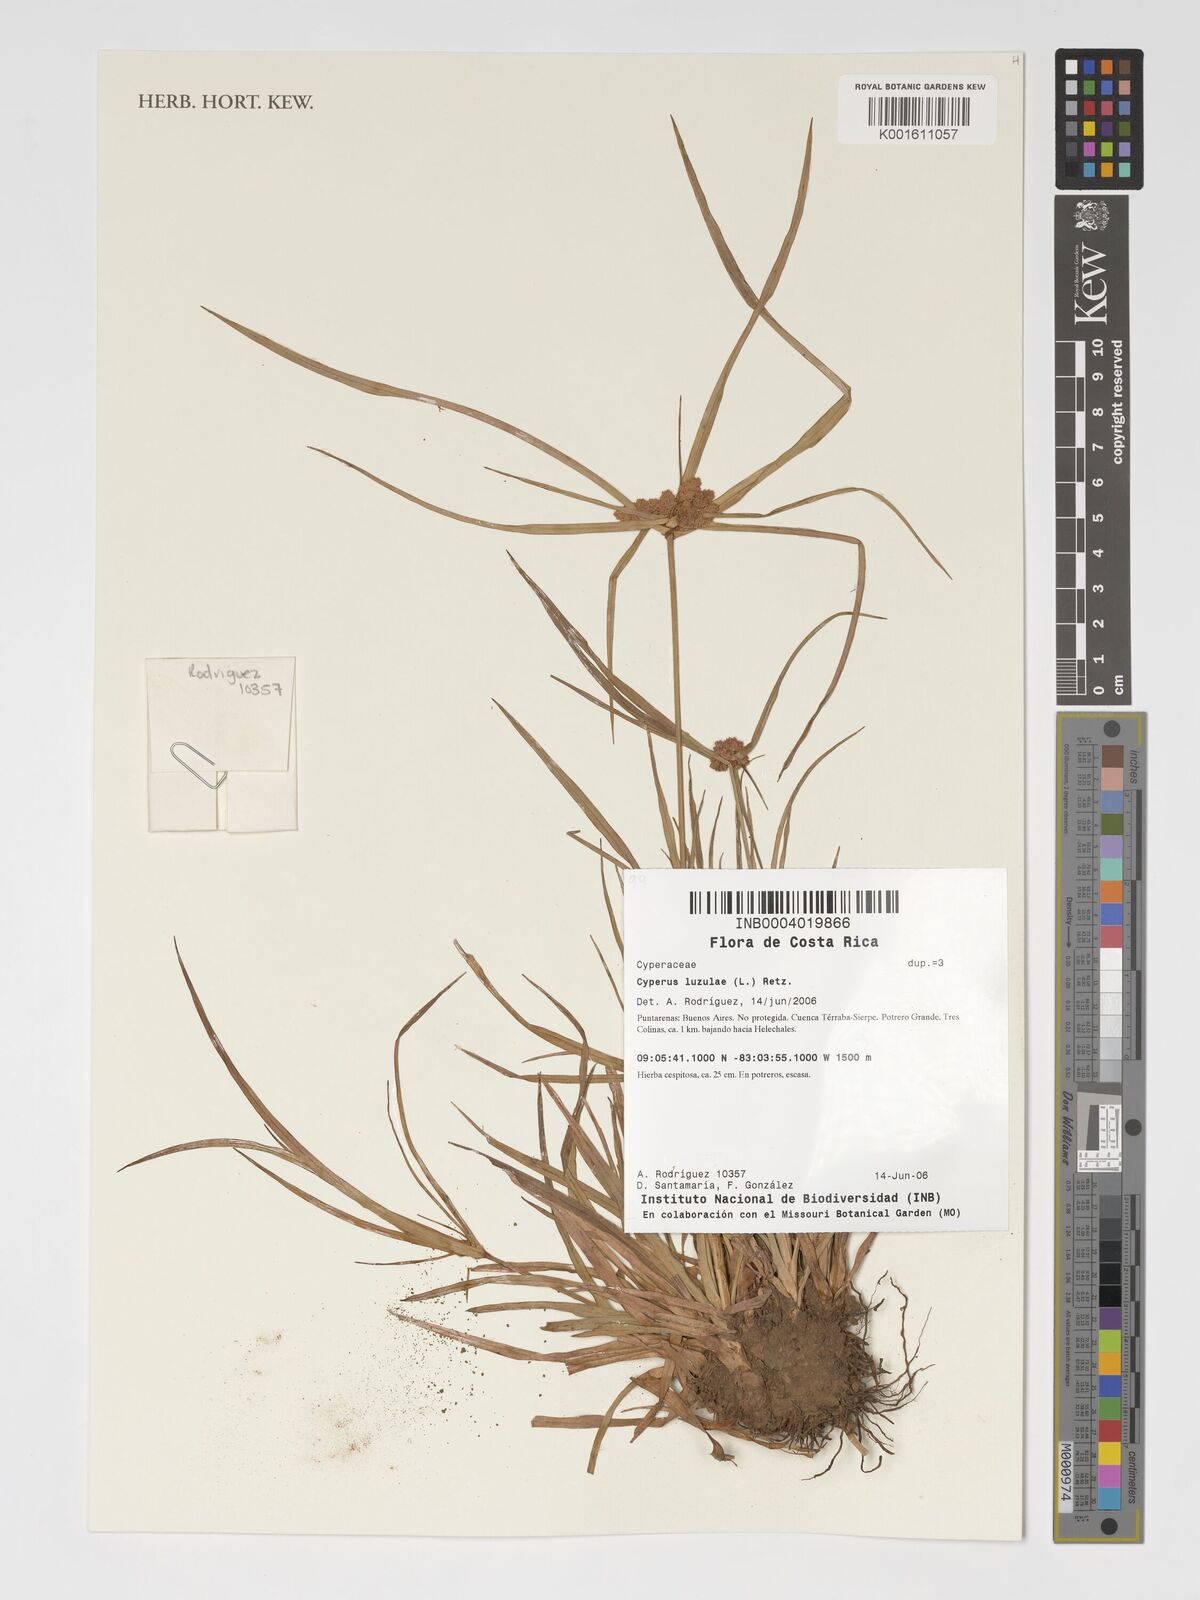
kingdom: Plantae
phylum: Tracheophyta
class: Liliopsida
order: Poales
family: Cyperaceae
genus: Cyperus
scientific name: Cyperus luzulae
